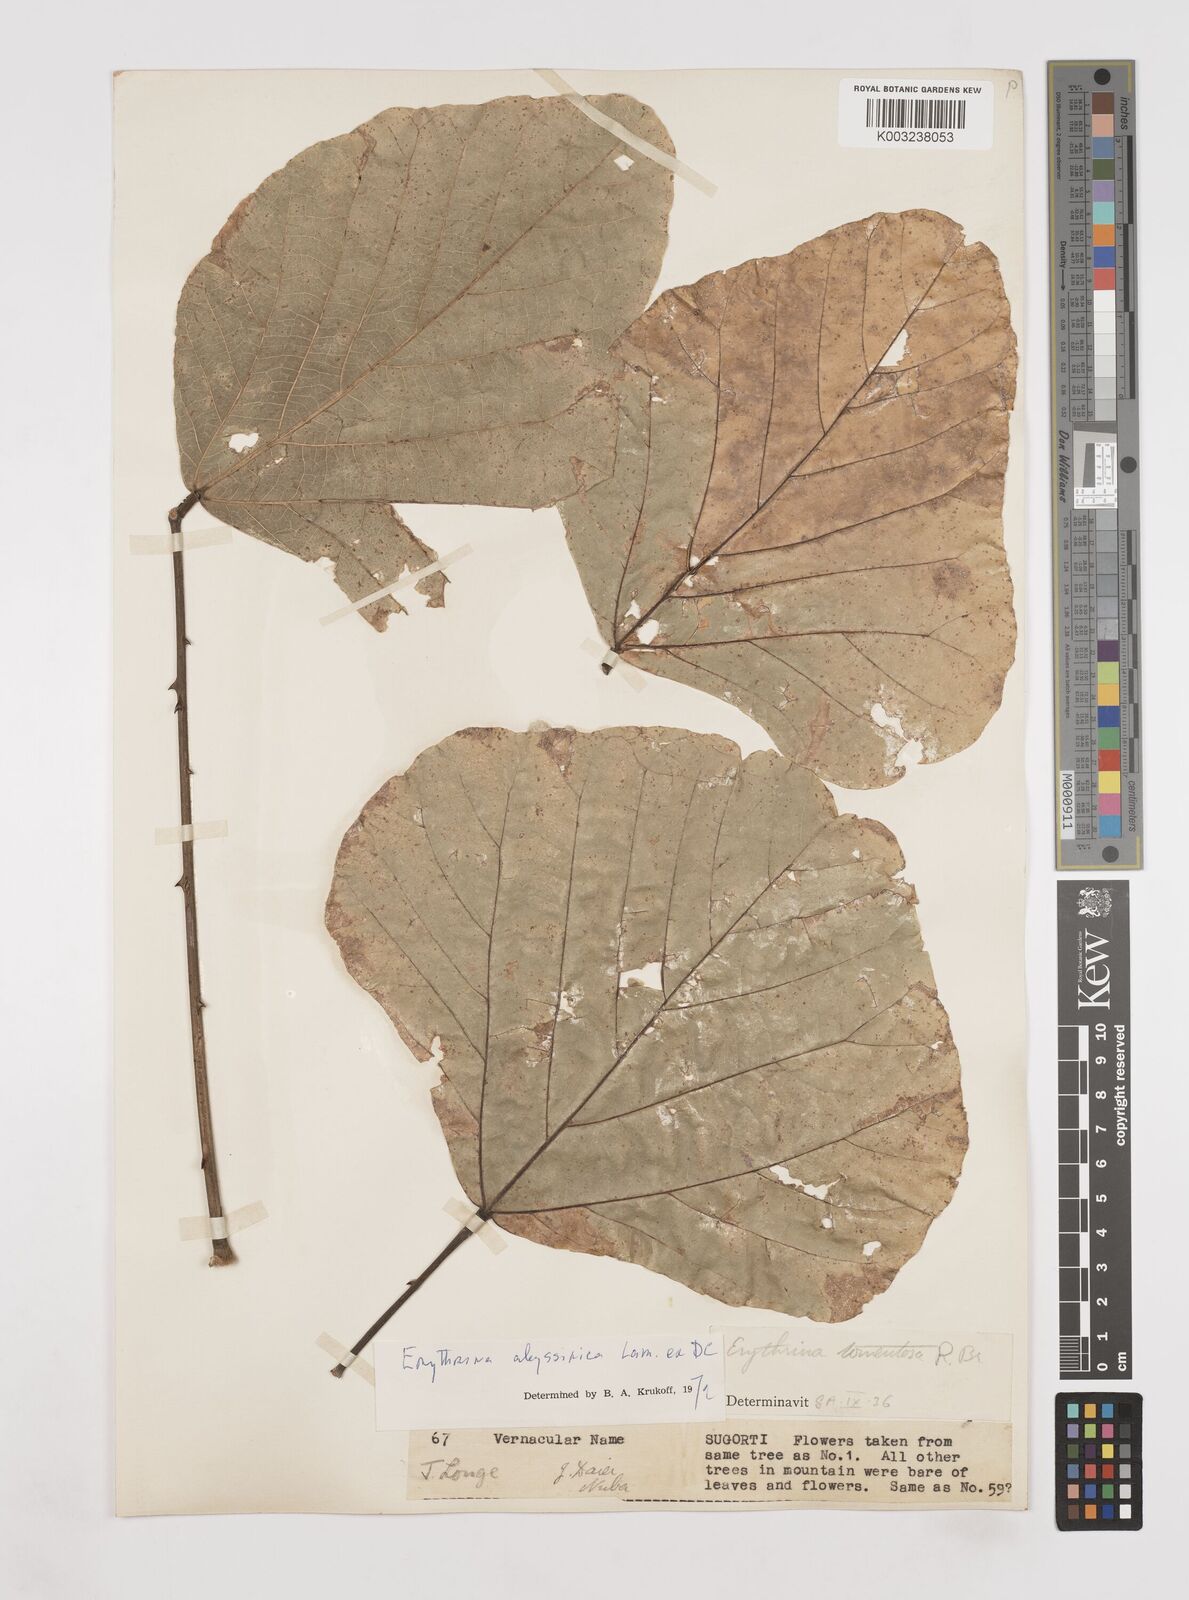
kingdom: Plantae
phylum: Tracheophyta
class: Magnoliopsida
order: Fabales
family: Fabaceae
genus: Erythrina
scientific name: Erythrina abyssinica
